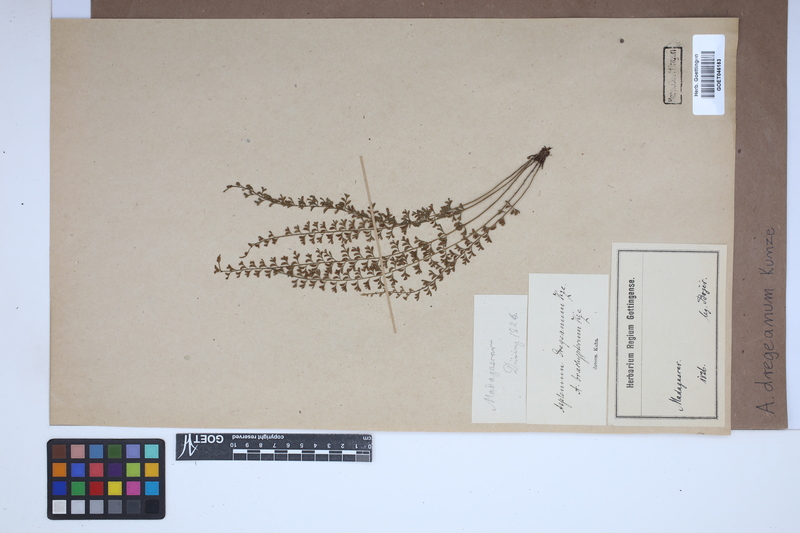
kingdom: Plantae
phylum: Tracheophyta
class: Polypodiopsida
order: Polypodiales
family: Aspleniaceae
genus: Asplenium
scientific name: Asplenium dregeanum
